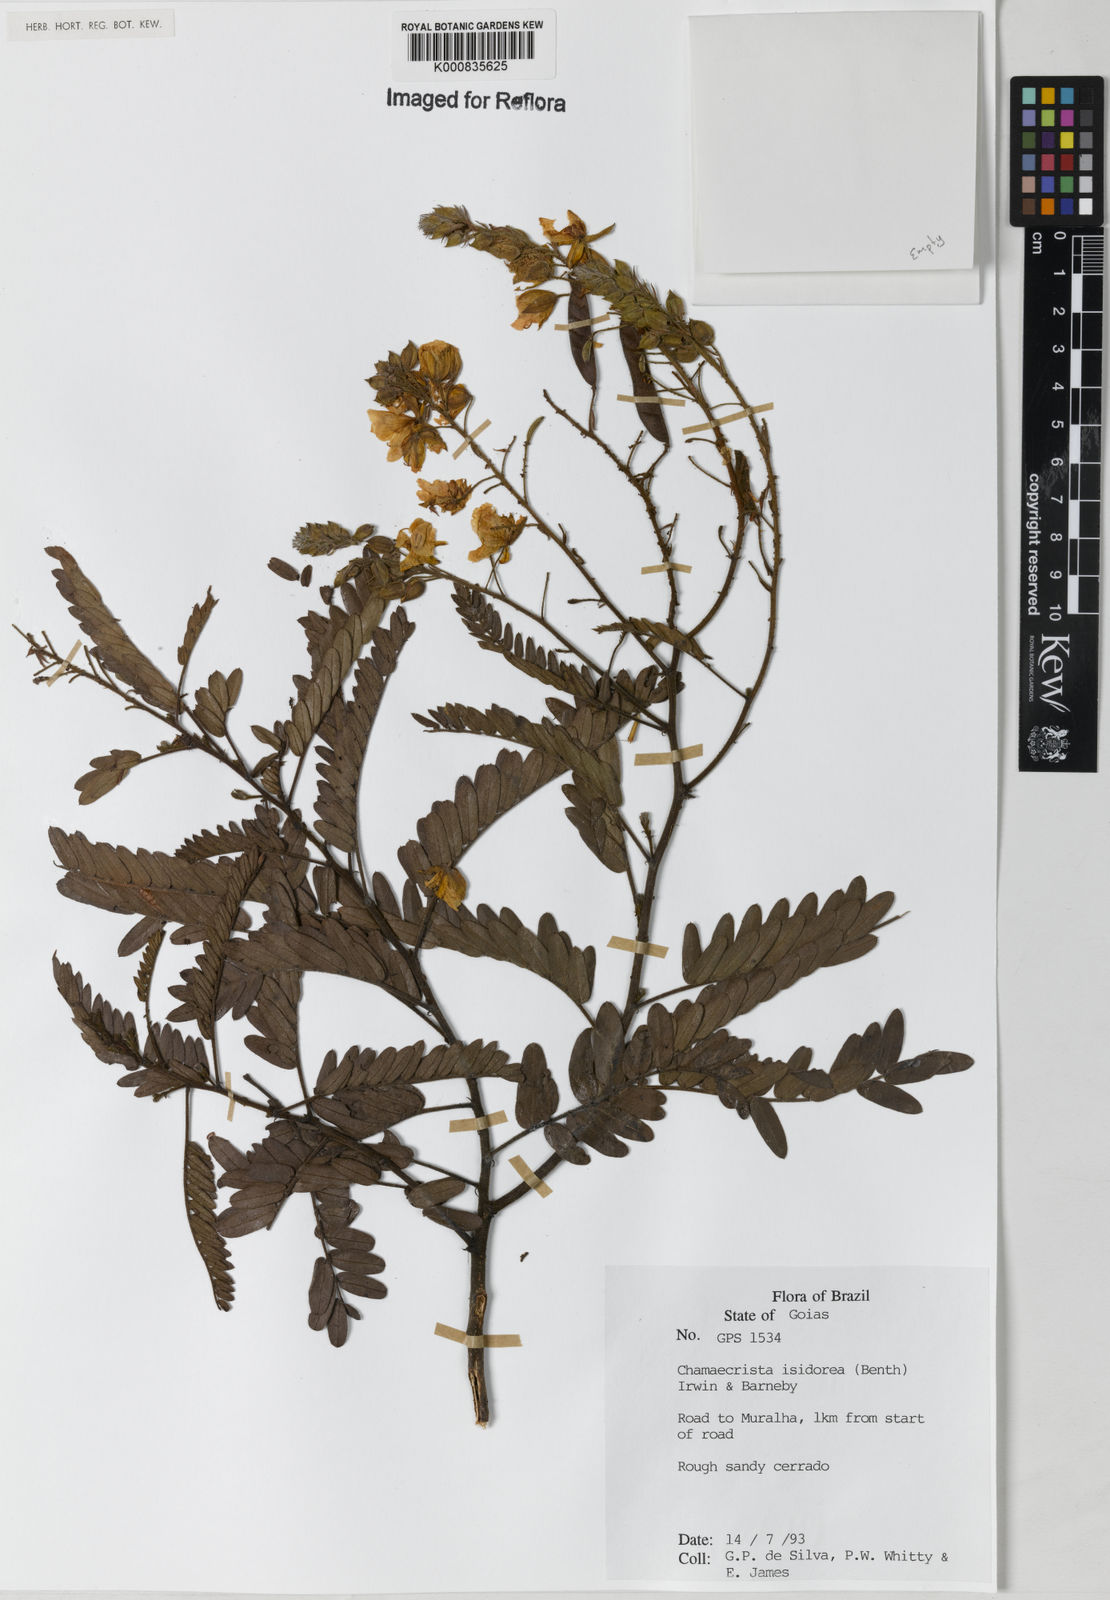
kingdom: Plantae
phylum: Tracheophyta
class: Magnoliopsida
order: Fabales
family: Fabaceae
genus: Chamaecrista
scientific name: Chamaecrista isidorea
